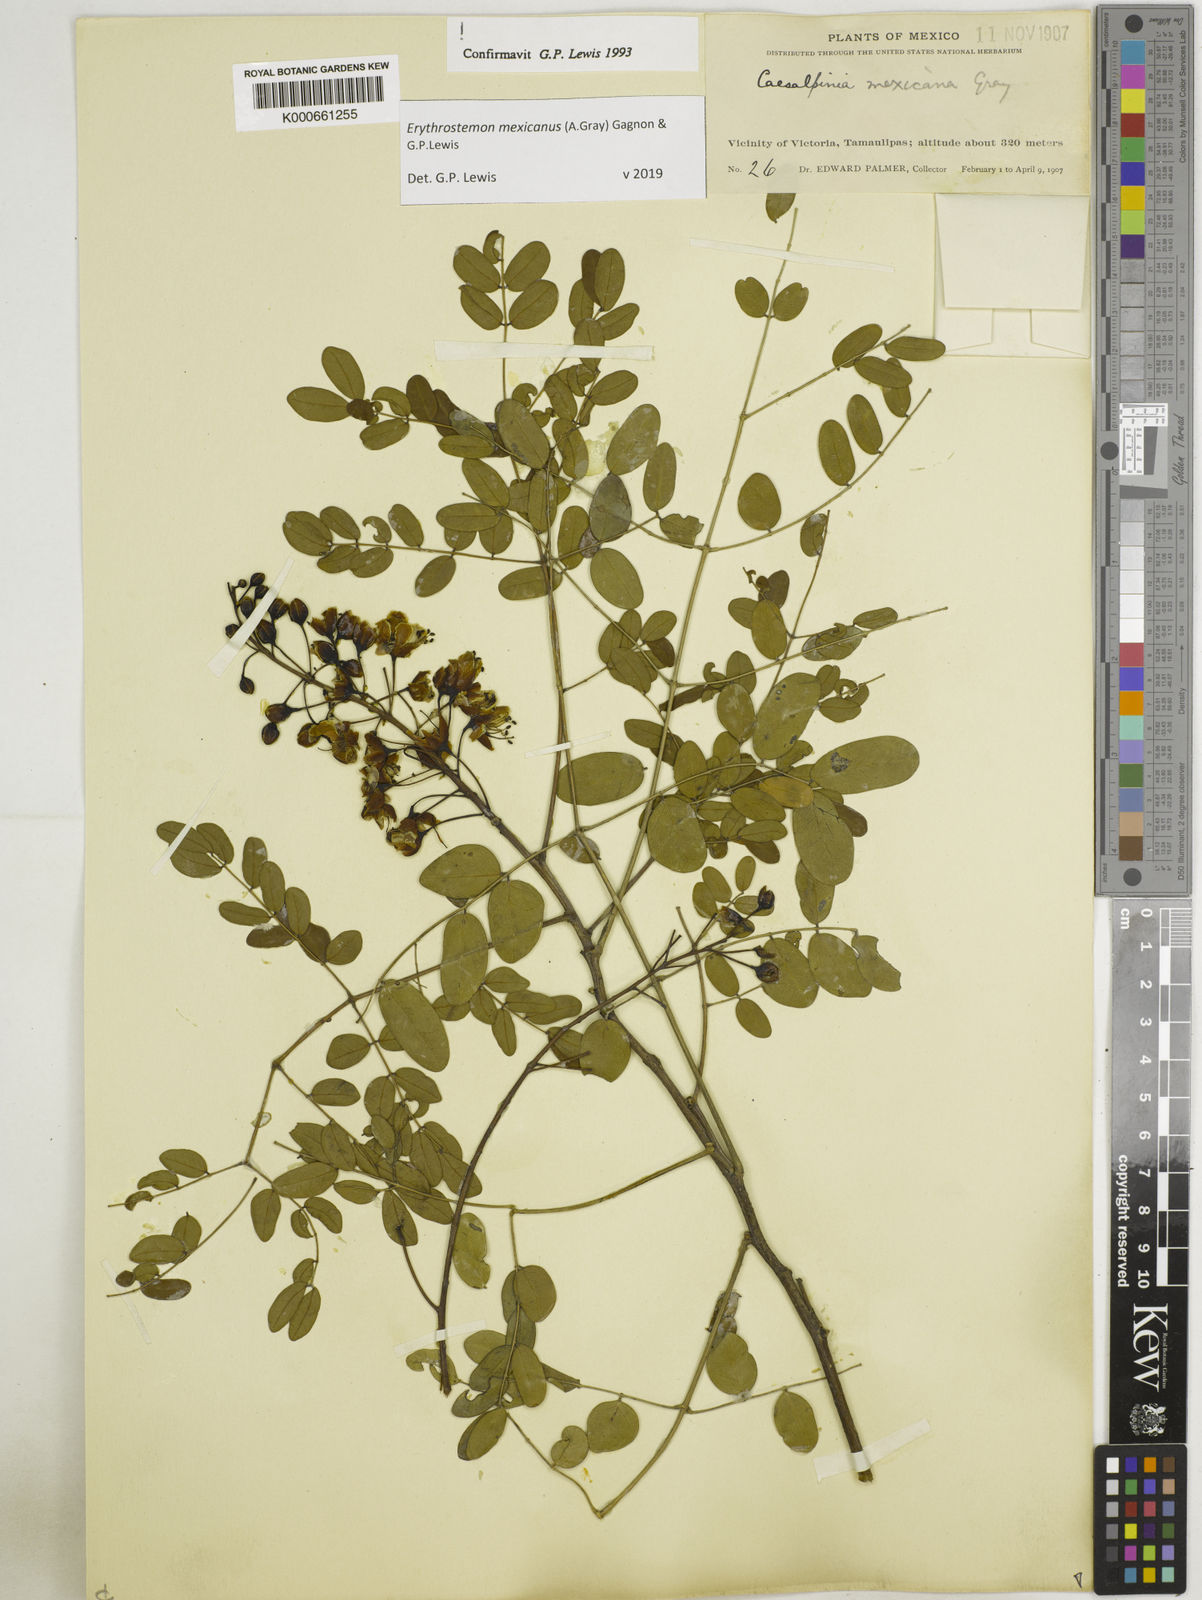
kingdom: Plantae
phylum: Tracheophyta
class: Magnoliopsida
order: Fabales
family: Fabaceae
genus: Erythrostemon
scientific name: Erythrostemon mexicanus
